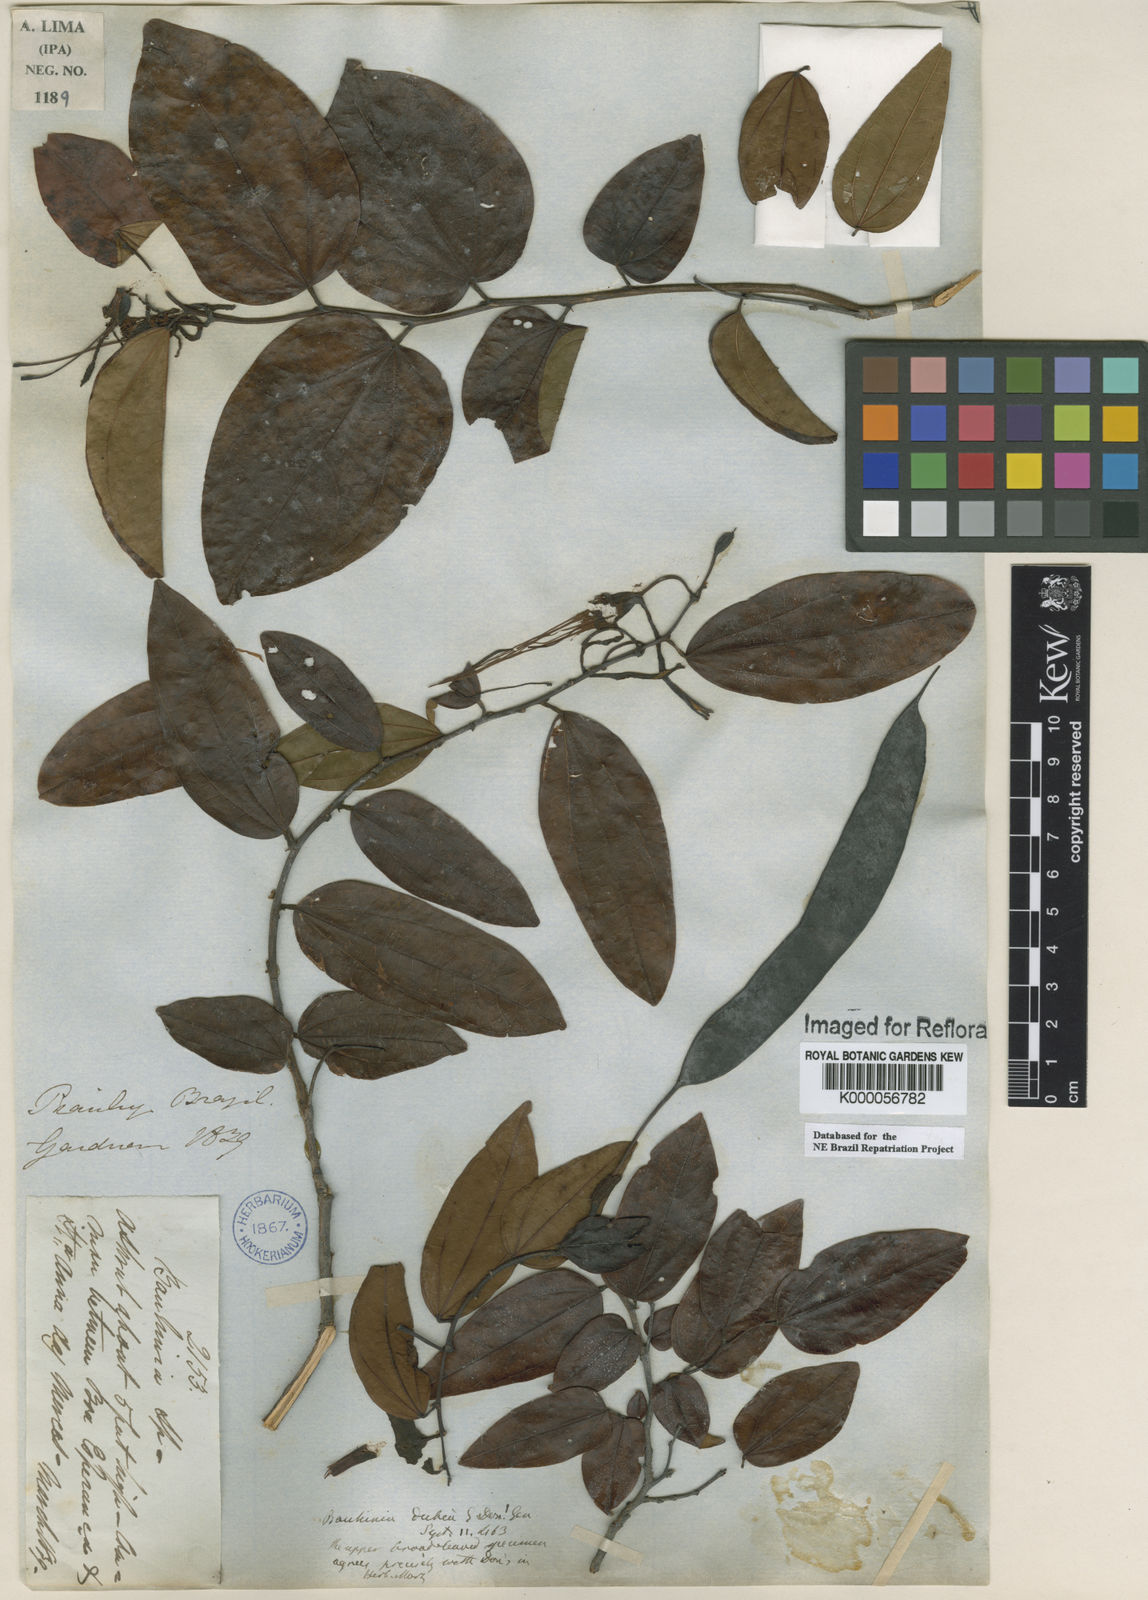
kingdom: Plantae
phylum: Tracheophyta
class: Magnoliopsida
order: Fabales
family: Fabaceae
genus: Bauhinia
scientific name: Bauhinia dubia
